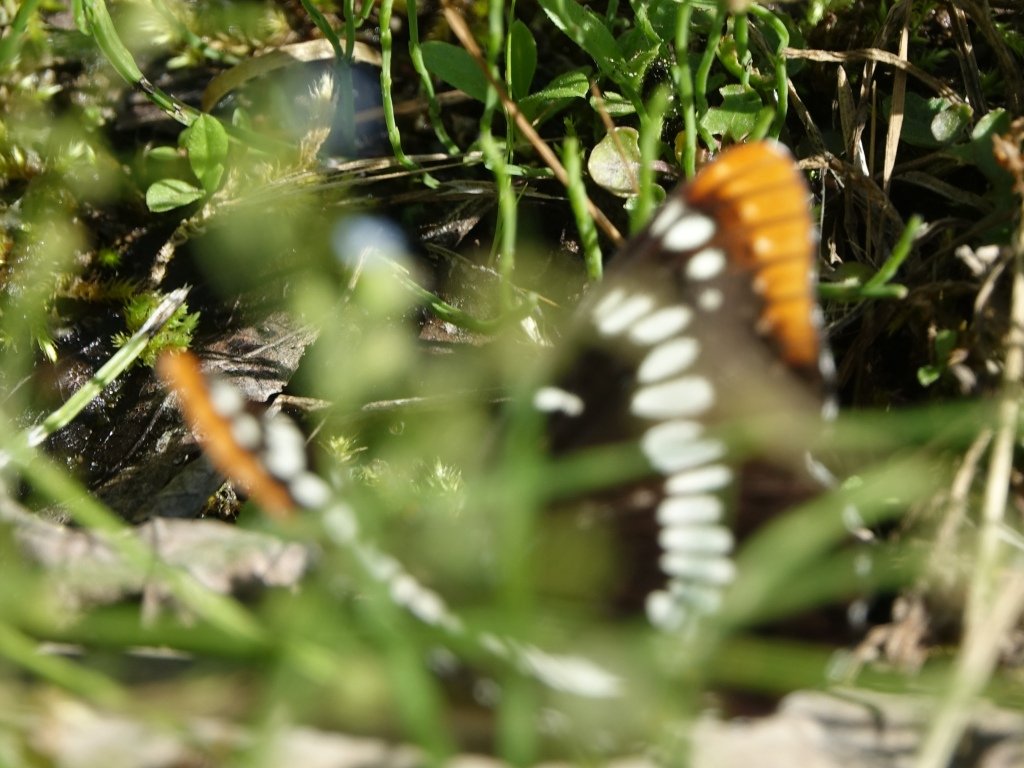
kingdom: Animalia
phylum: Arthropoda
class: Insecta
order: Lepidoptera
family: Nymphalidae
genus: Limenitis
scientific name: Limenitis lorquini
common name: Lorquin's Admiral
